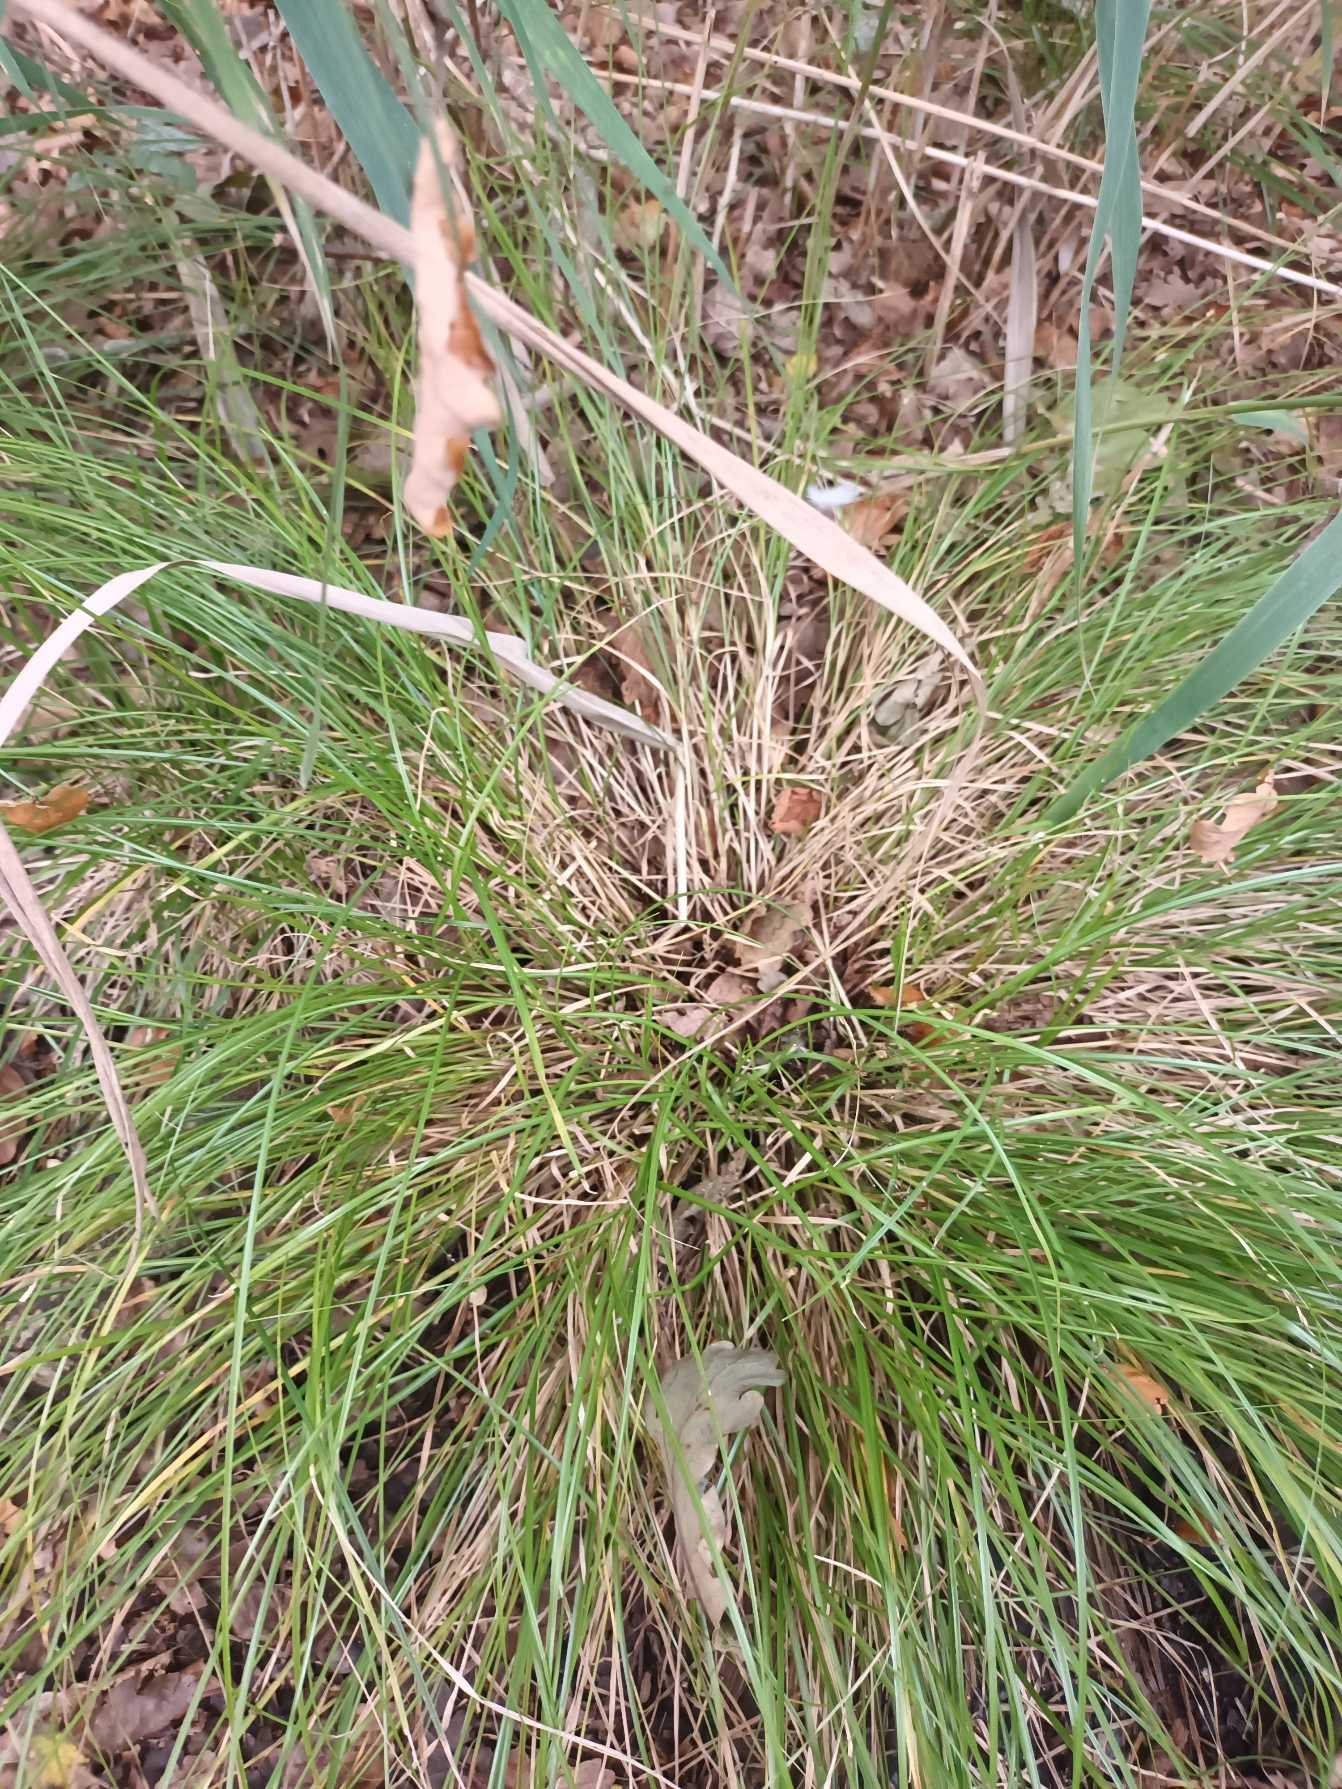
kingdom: Plantae
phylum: Tracheophyta
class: Liliopsida
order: Poales
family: Cyperaceae
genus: Carex
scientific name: Carex remota
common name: Akselblomstret star
